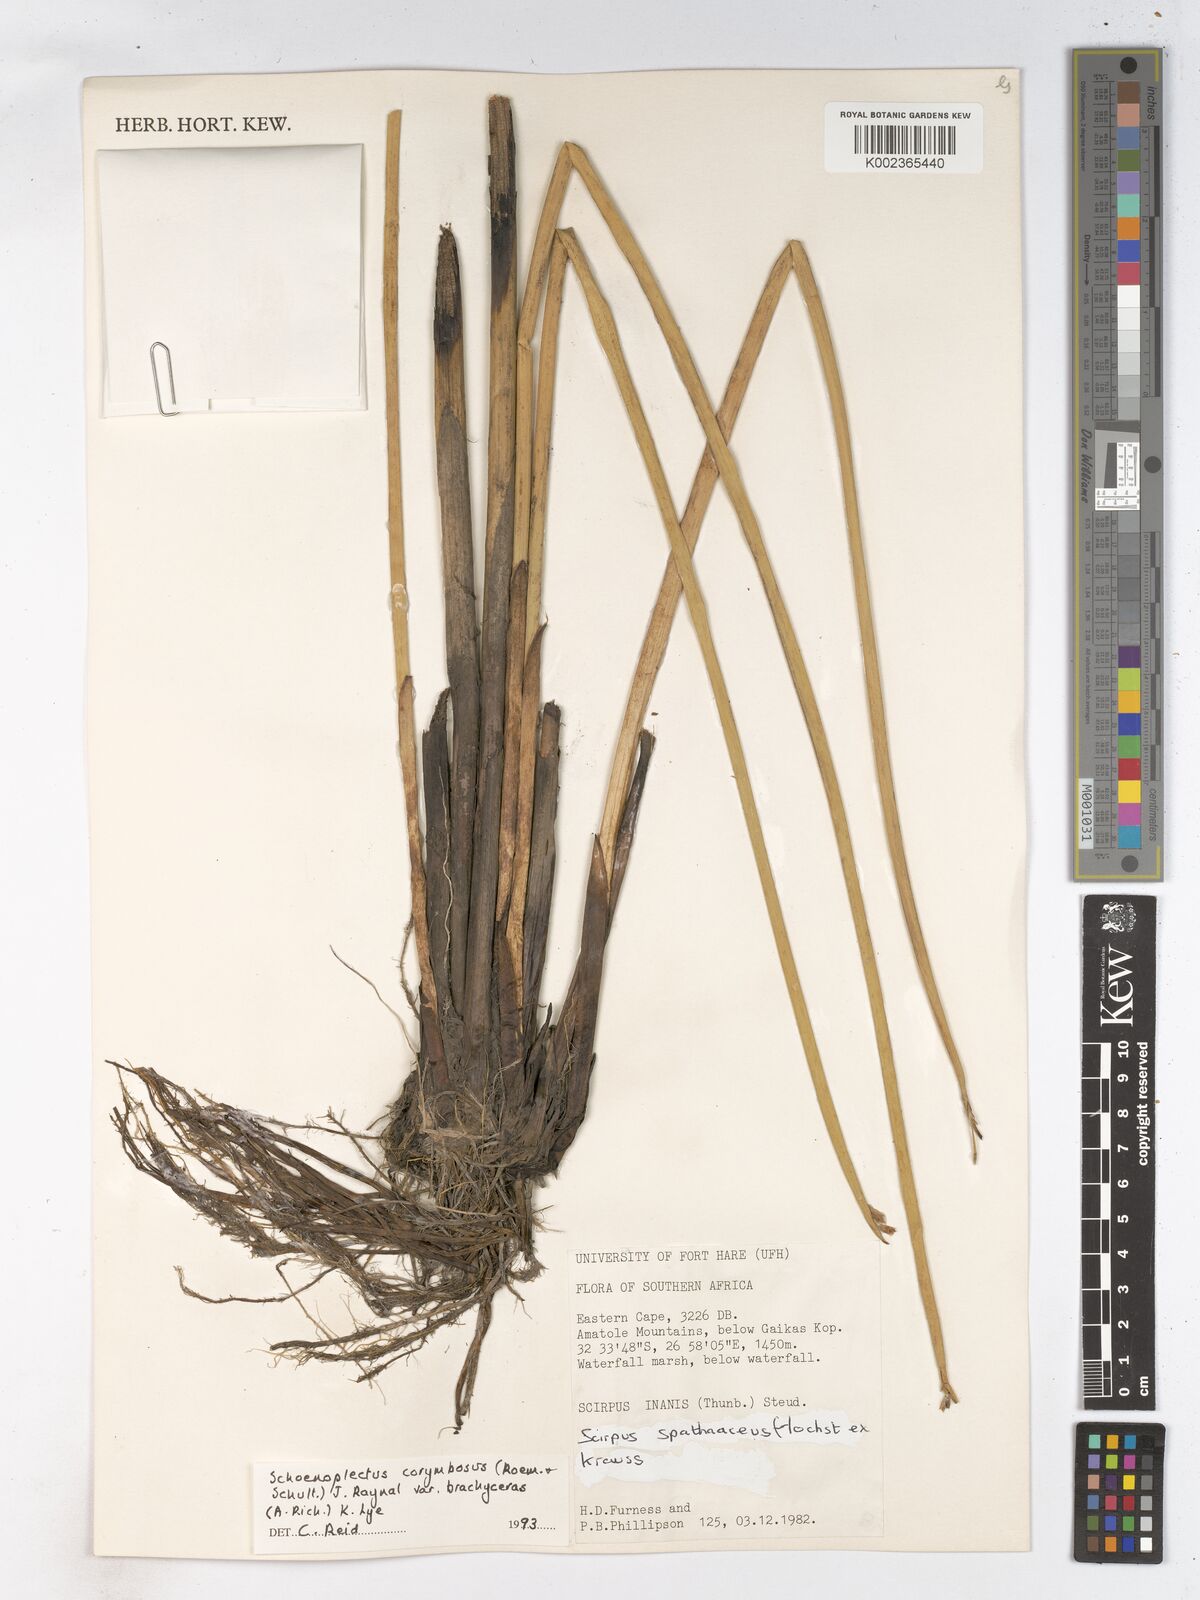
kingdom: Plantae
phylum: Tracheophyta
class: Liliopsida
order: Poales
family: Cyperaceae
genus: Schoenoplectiella
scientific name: Schoenoplectiella brachyceras
